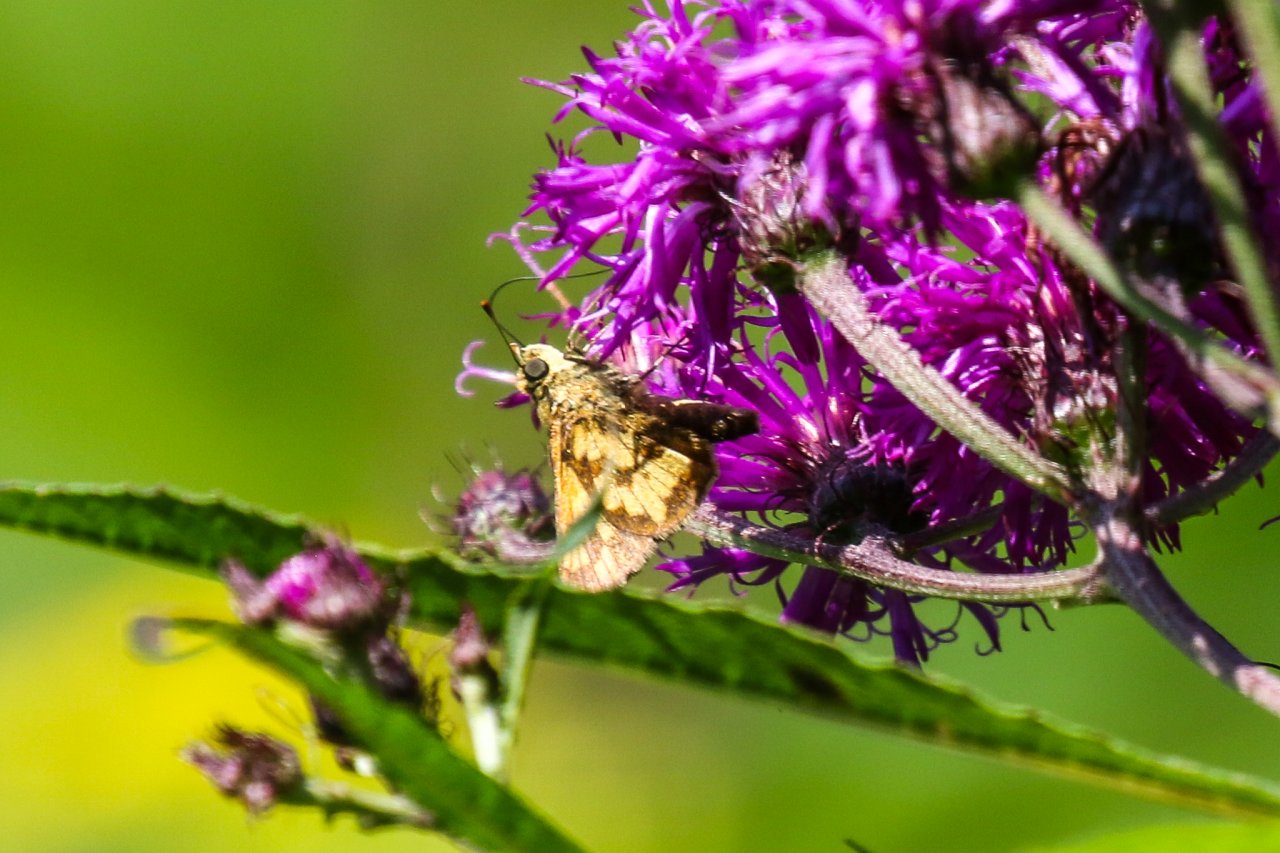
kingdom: Animalia
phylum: Arthropoda
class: Insecta
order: Lepidoptera
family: Hesperiidae
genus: Polites
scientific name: Polites coras
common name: Peck's Skipper
